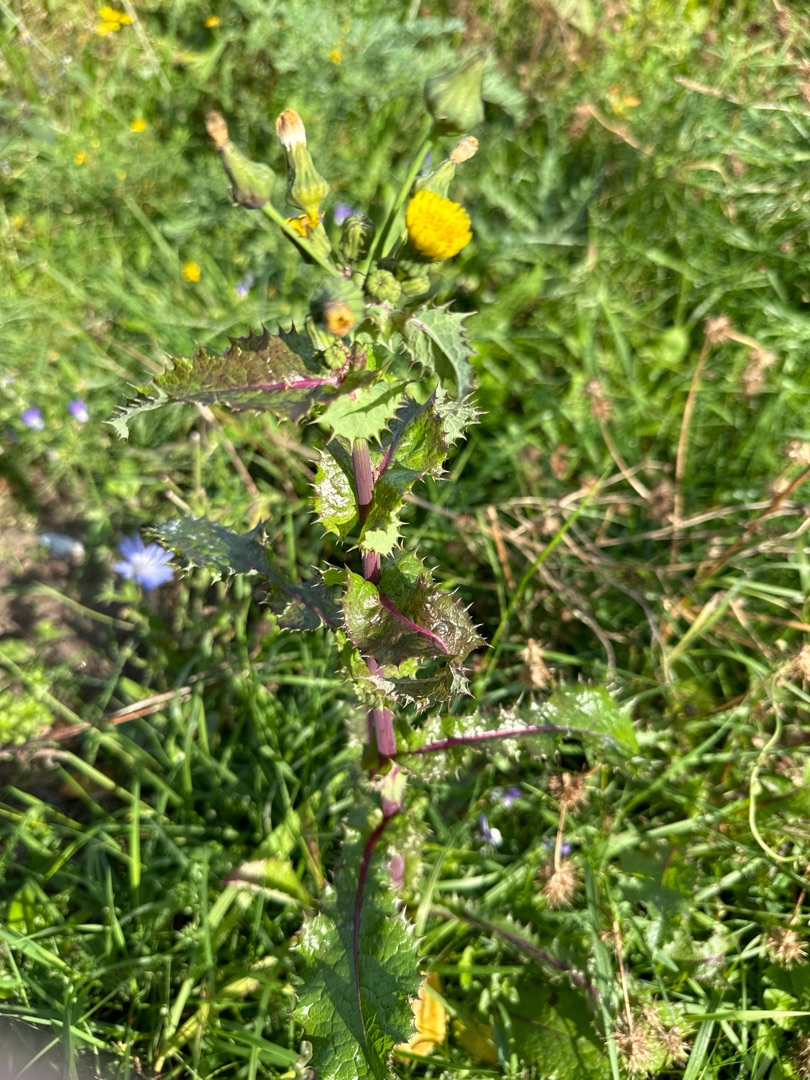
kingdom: Plantae
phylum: Tracheophyta
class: Magnoliopsida
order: Asterales
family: Asteraceae
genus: Sonchus
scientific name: Sonchus asper
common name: Ru svinemælk
